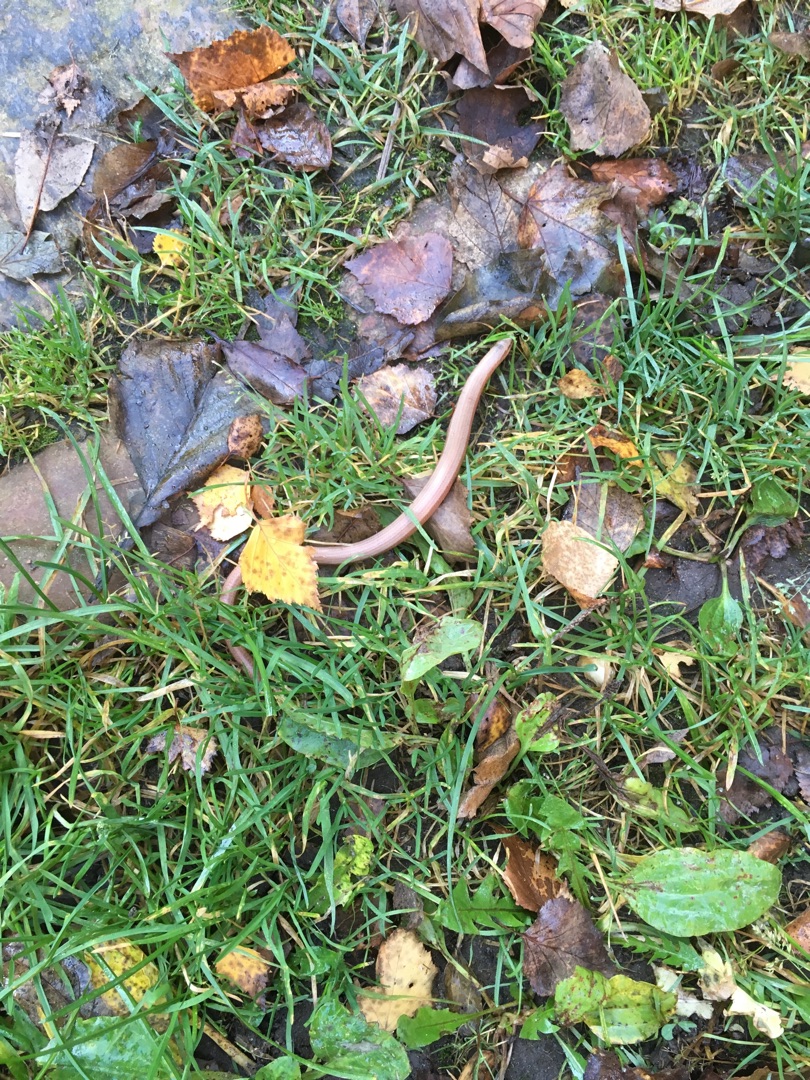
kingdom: Animalia
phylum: Chordata
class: Squamata
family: Anguidae
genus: Anguis
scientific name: Anguis fragilis
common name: Stålorm
